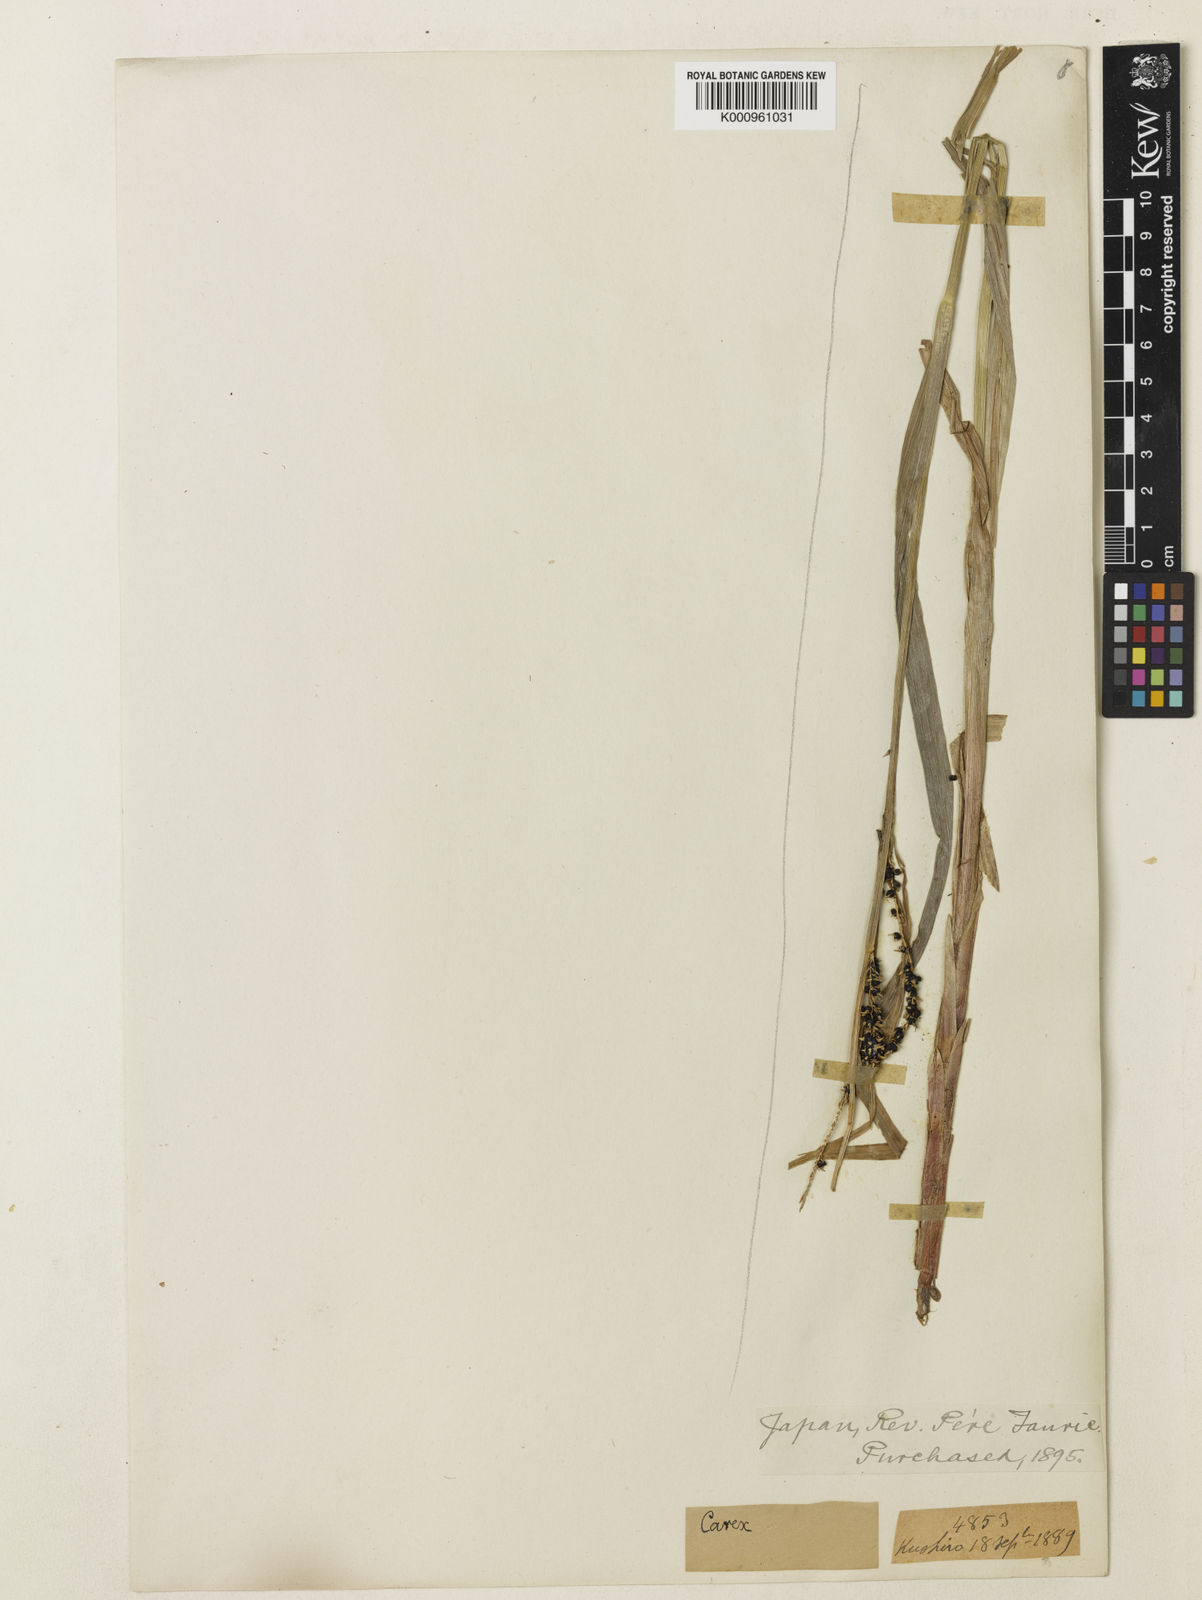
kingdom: Plantae
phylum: Tracheophyta
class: Liliopsida
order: Poales
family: Cyperaceae
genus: Carex
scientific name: Carex riparia
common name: Greater pond-sedge
